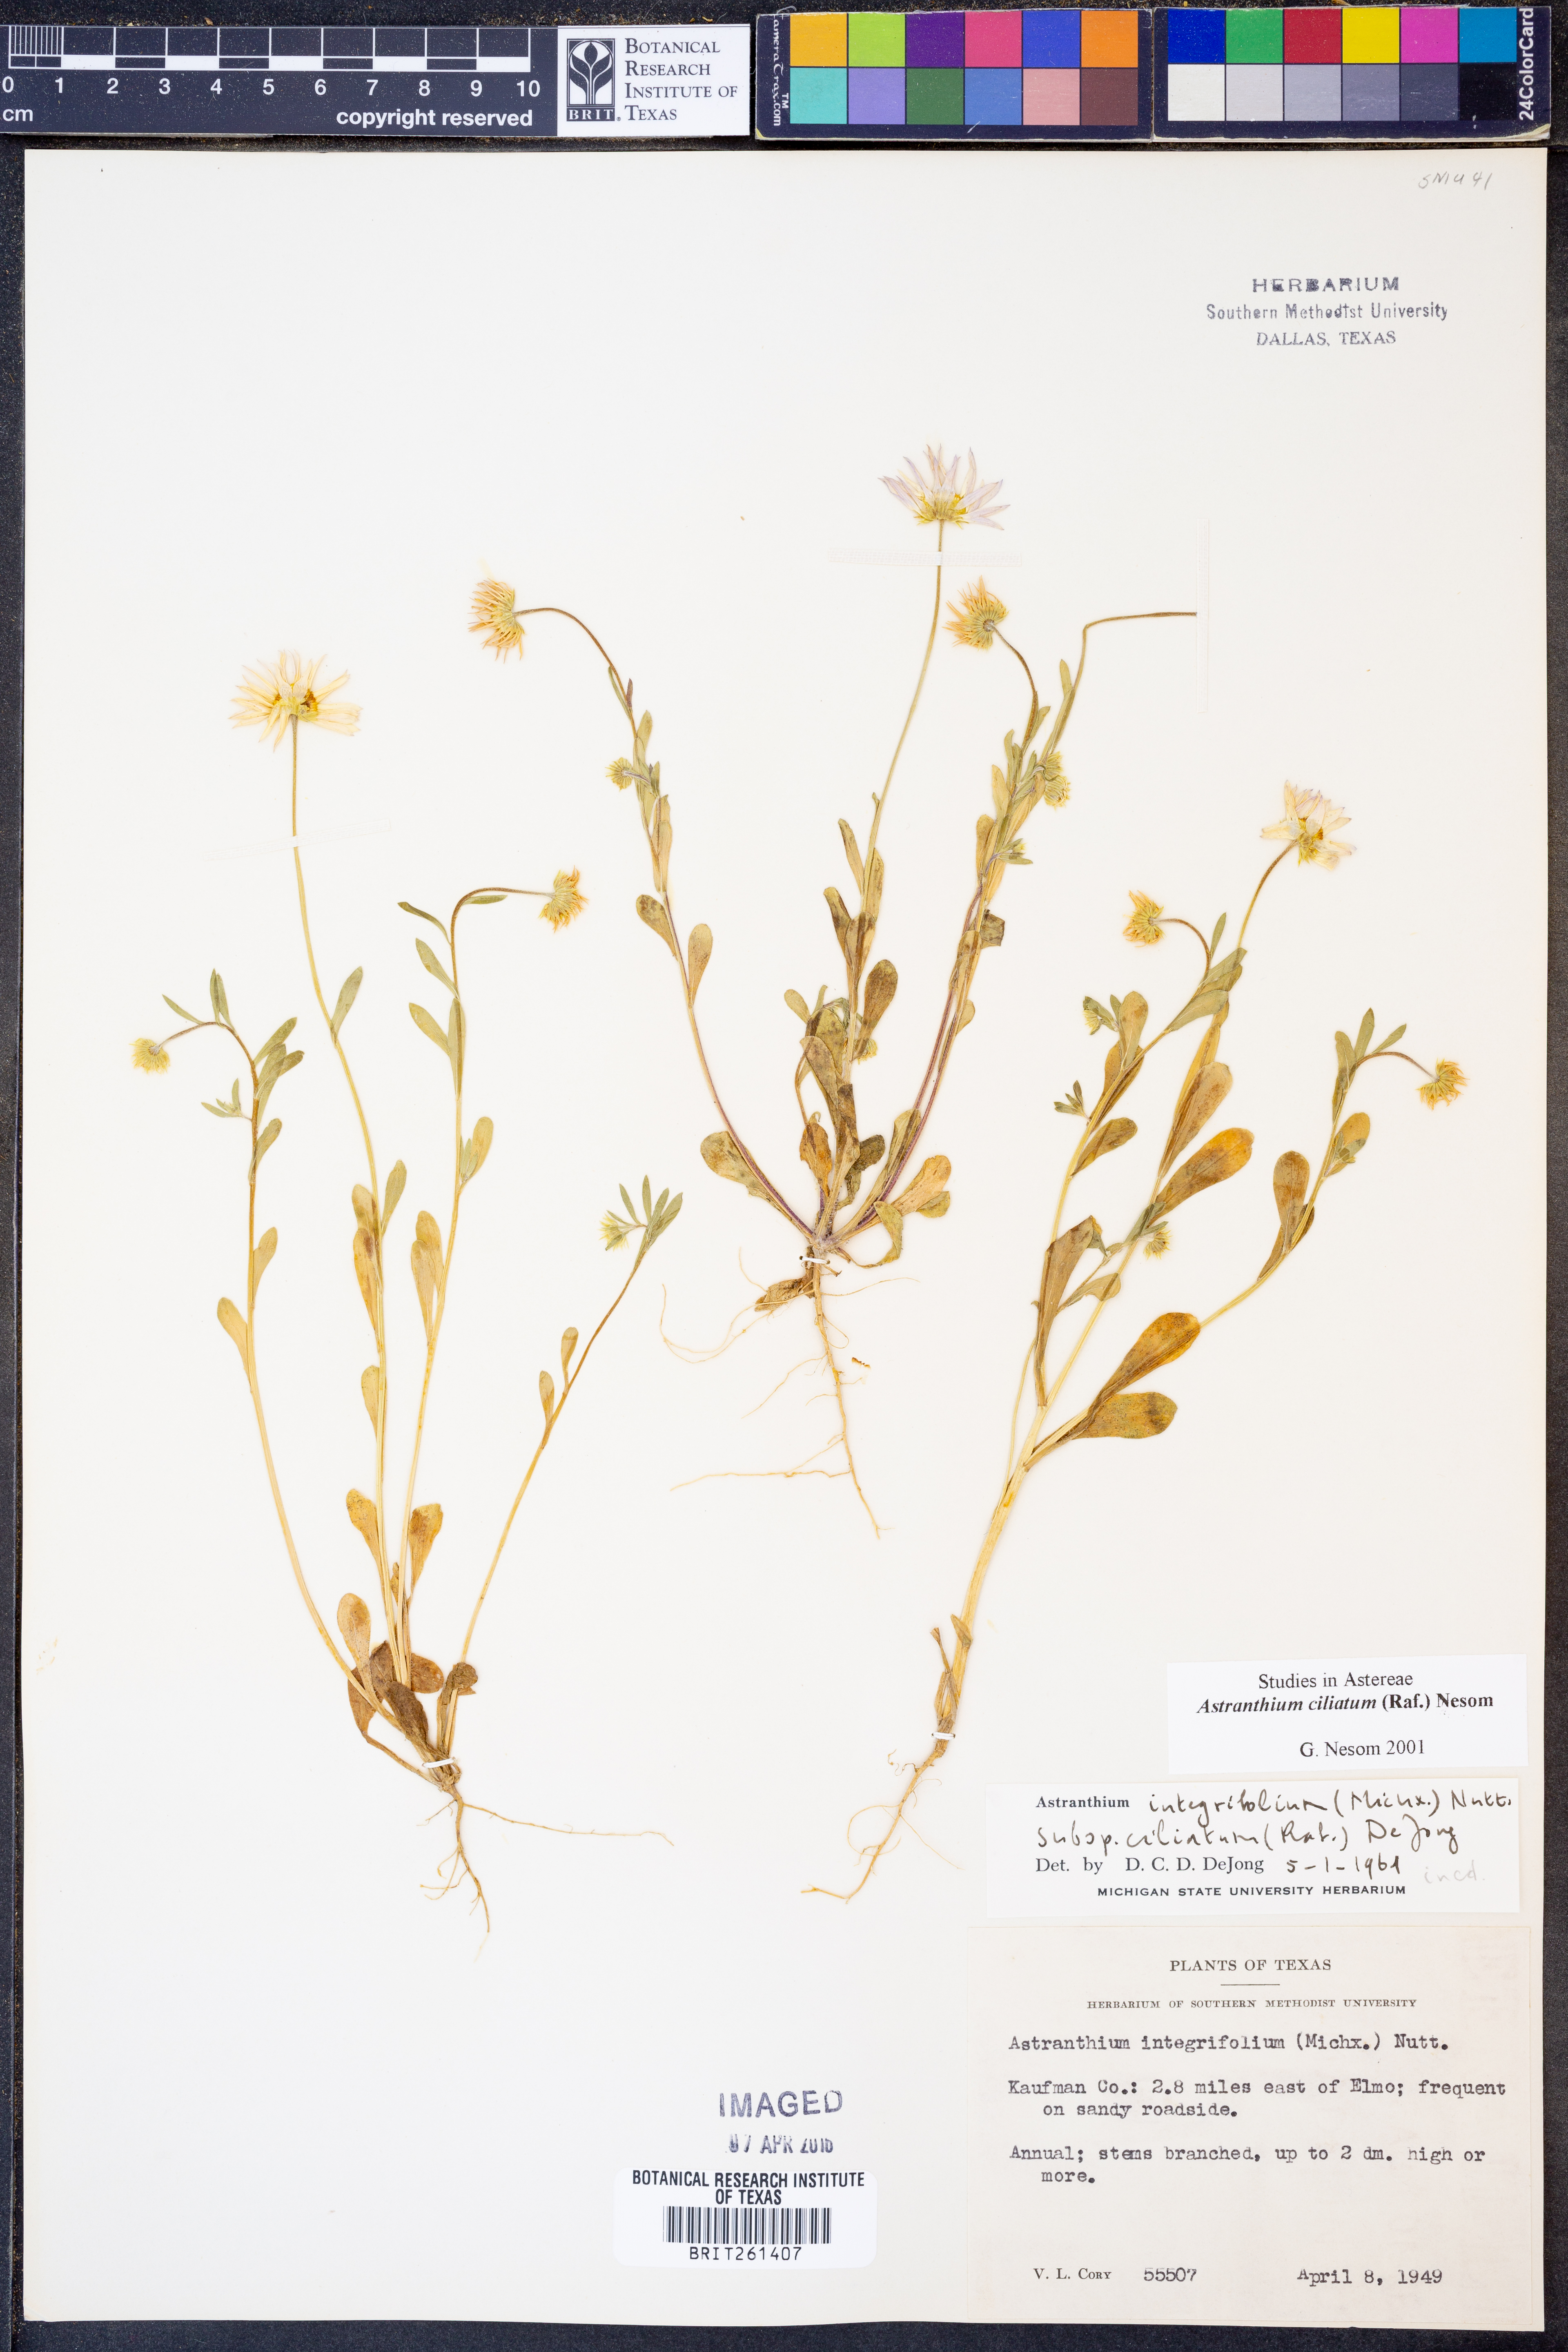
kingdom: Plantae
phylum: Tracheophyta
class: Magnoliopsida
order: Asterales
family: Asteraceae
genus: Astranthium
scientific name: Astranthium ciliatum
